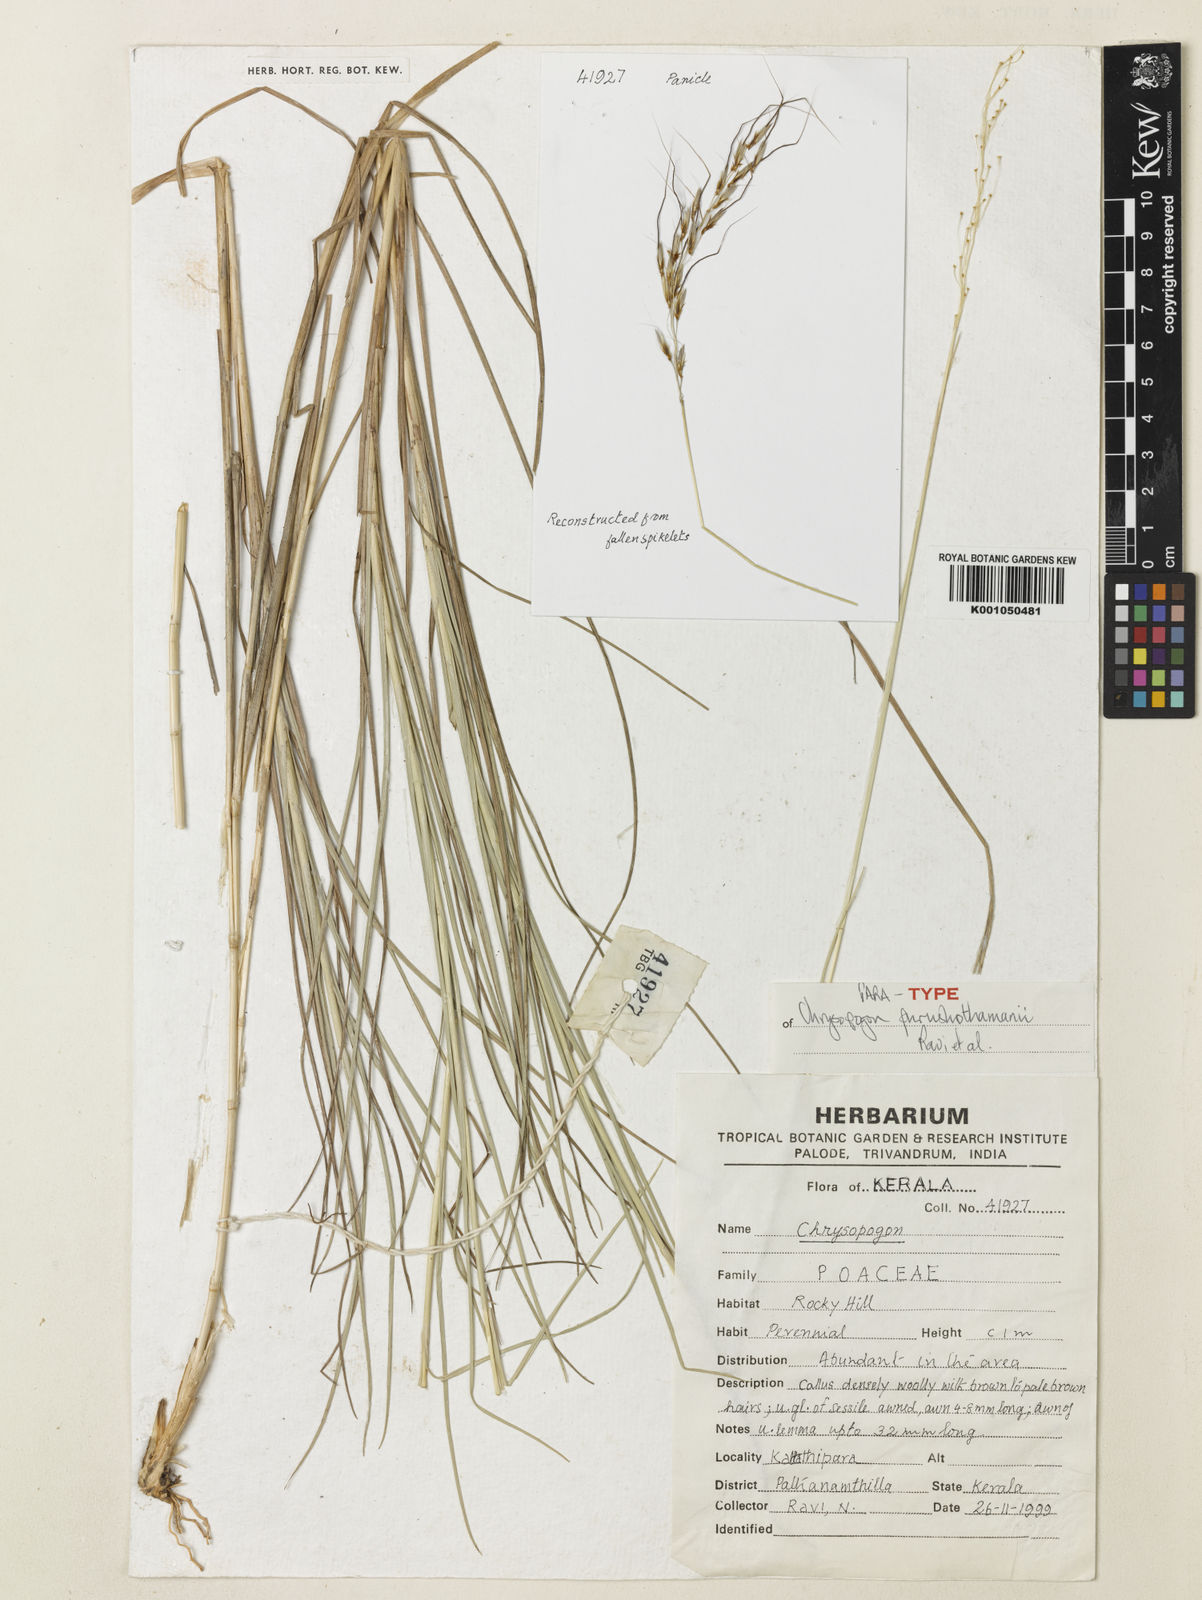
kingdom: Plantae
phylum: Tracheophyta
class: Liliopsida
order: Poales
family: Poaceae
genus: Chrysopogon
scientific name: Chrysopogon purushothamanii
